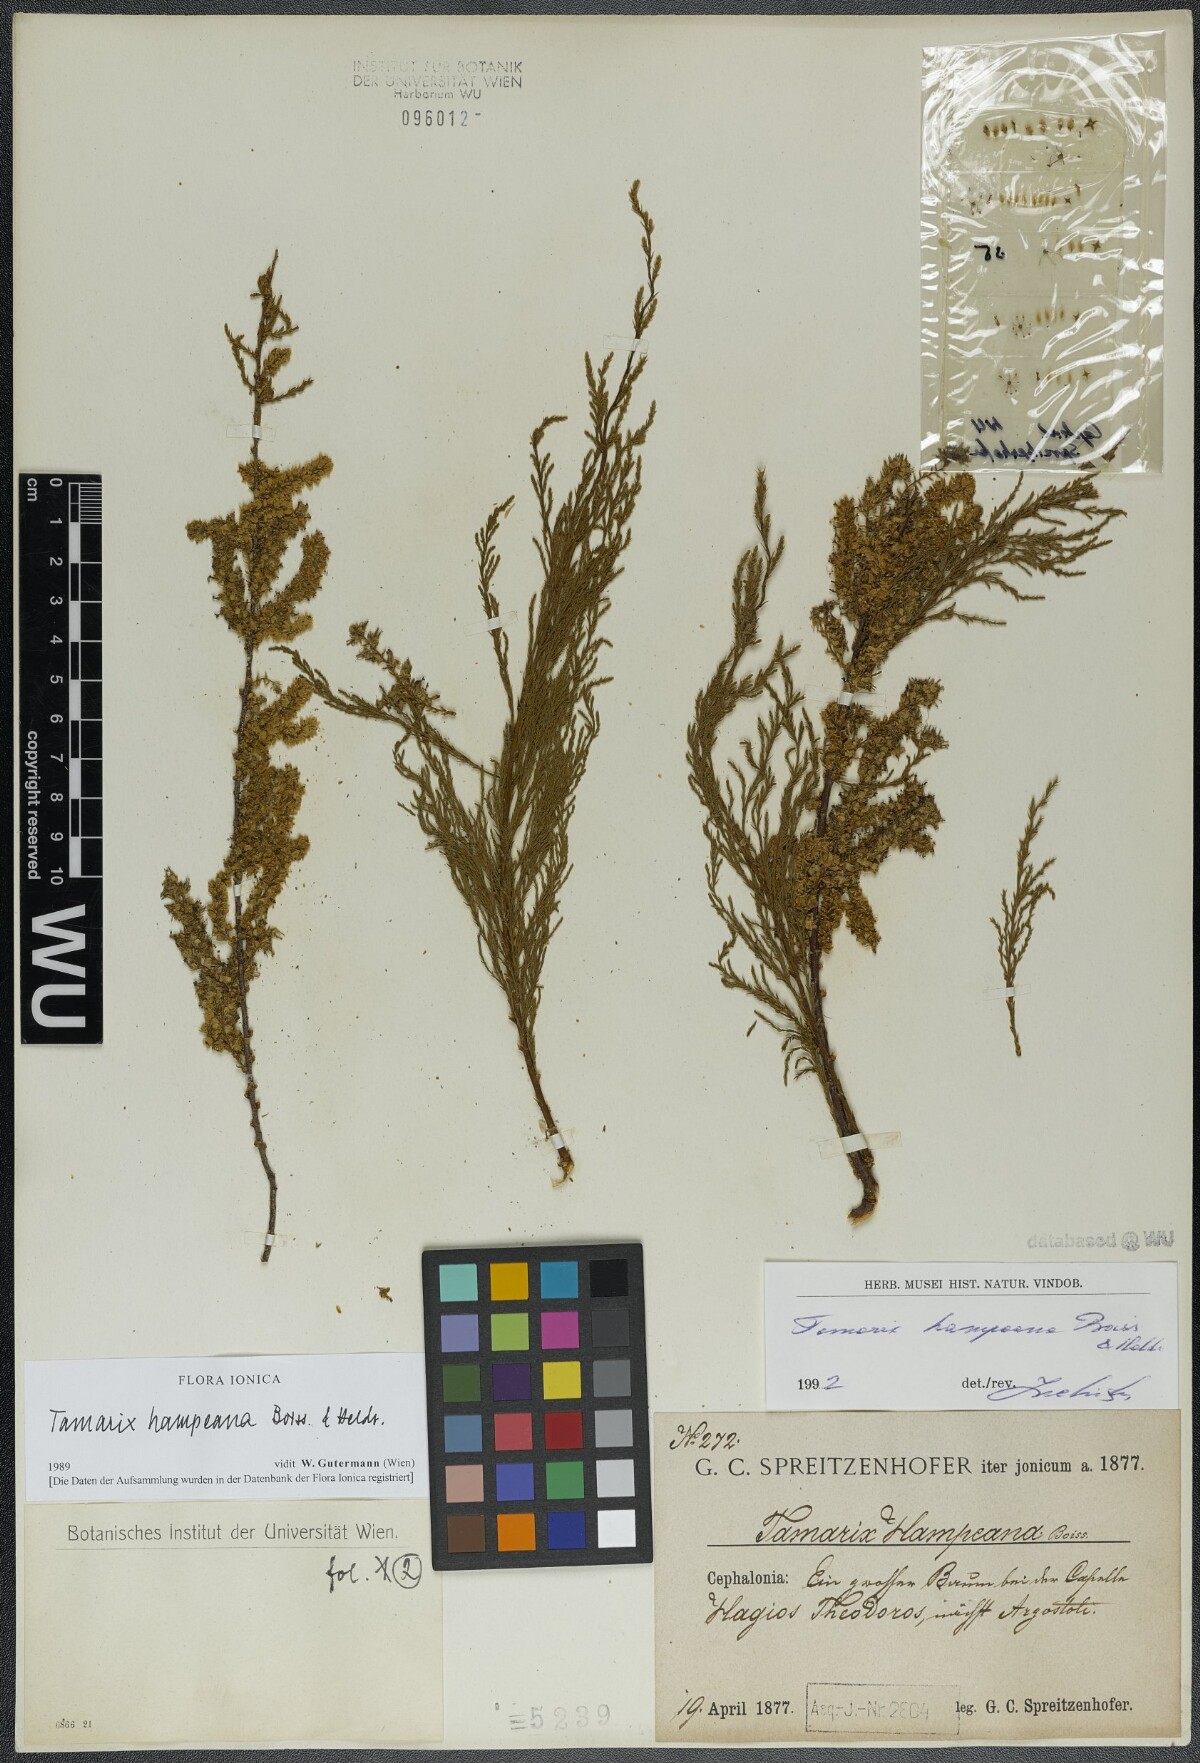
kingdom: Plantae
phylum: Tracheophyta
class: Magnoliopsida
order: Caryophyllales
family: Tamaricaceae
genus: Tamarix
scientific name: Tamarix hampeana
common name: Hampe’s tamarisk
